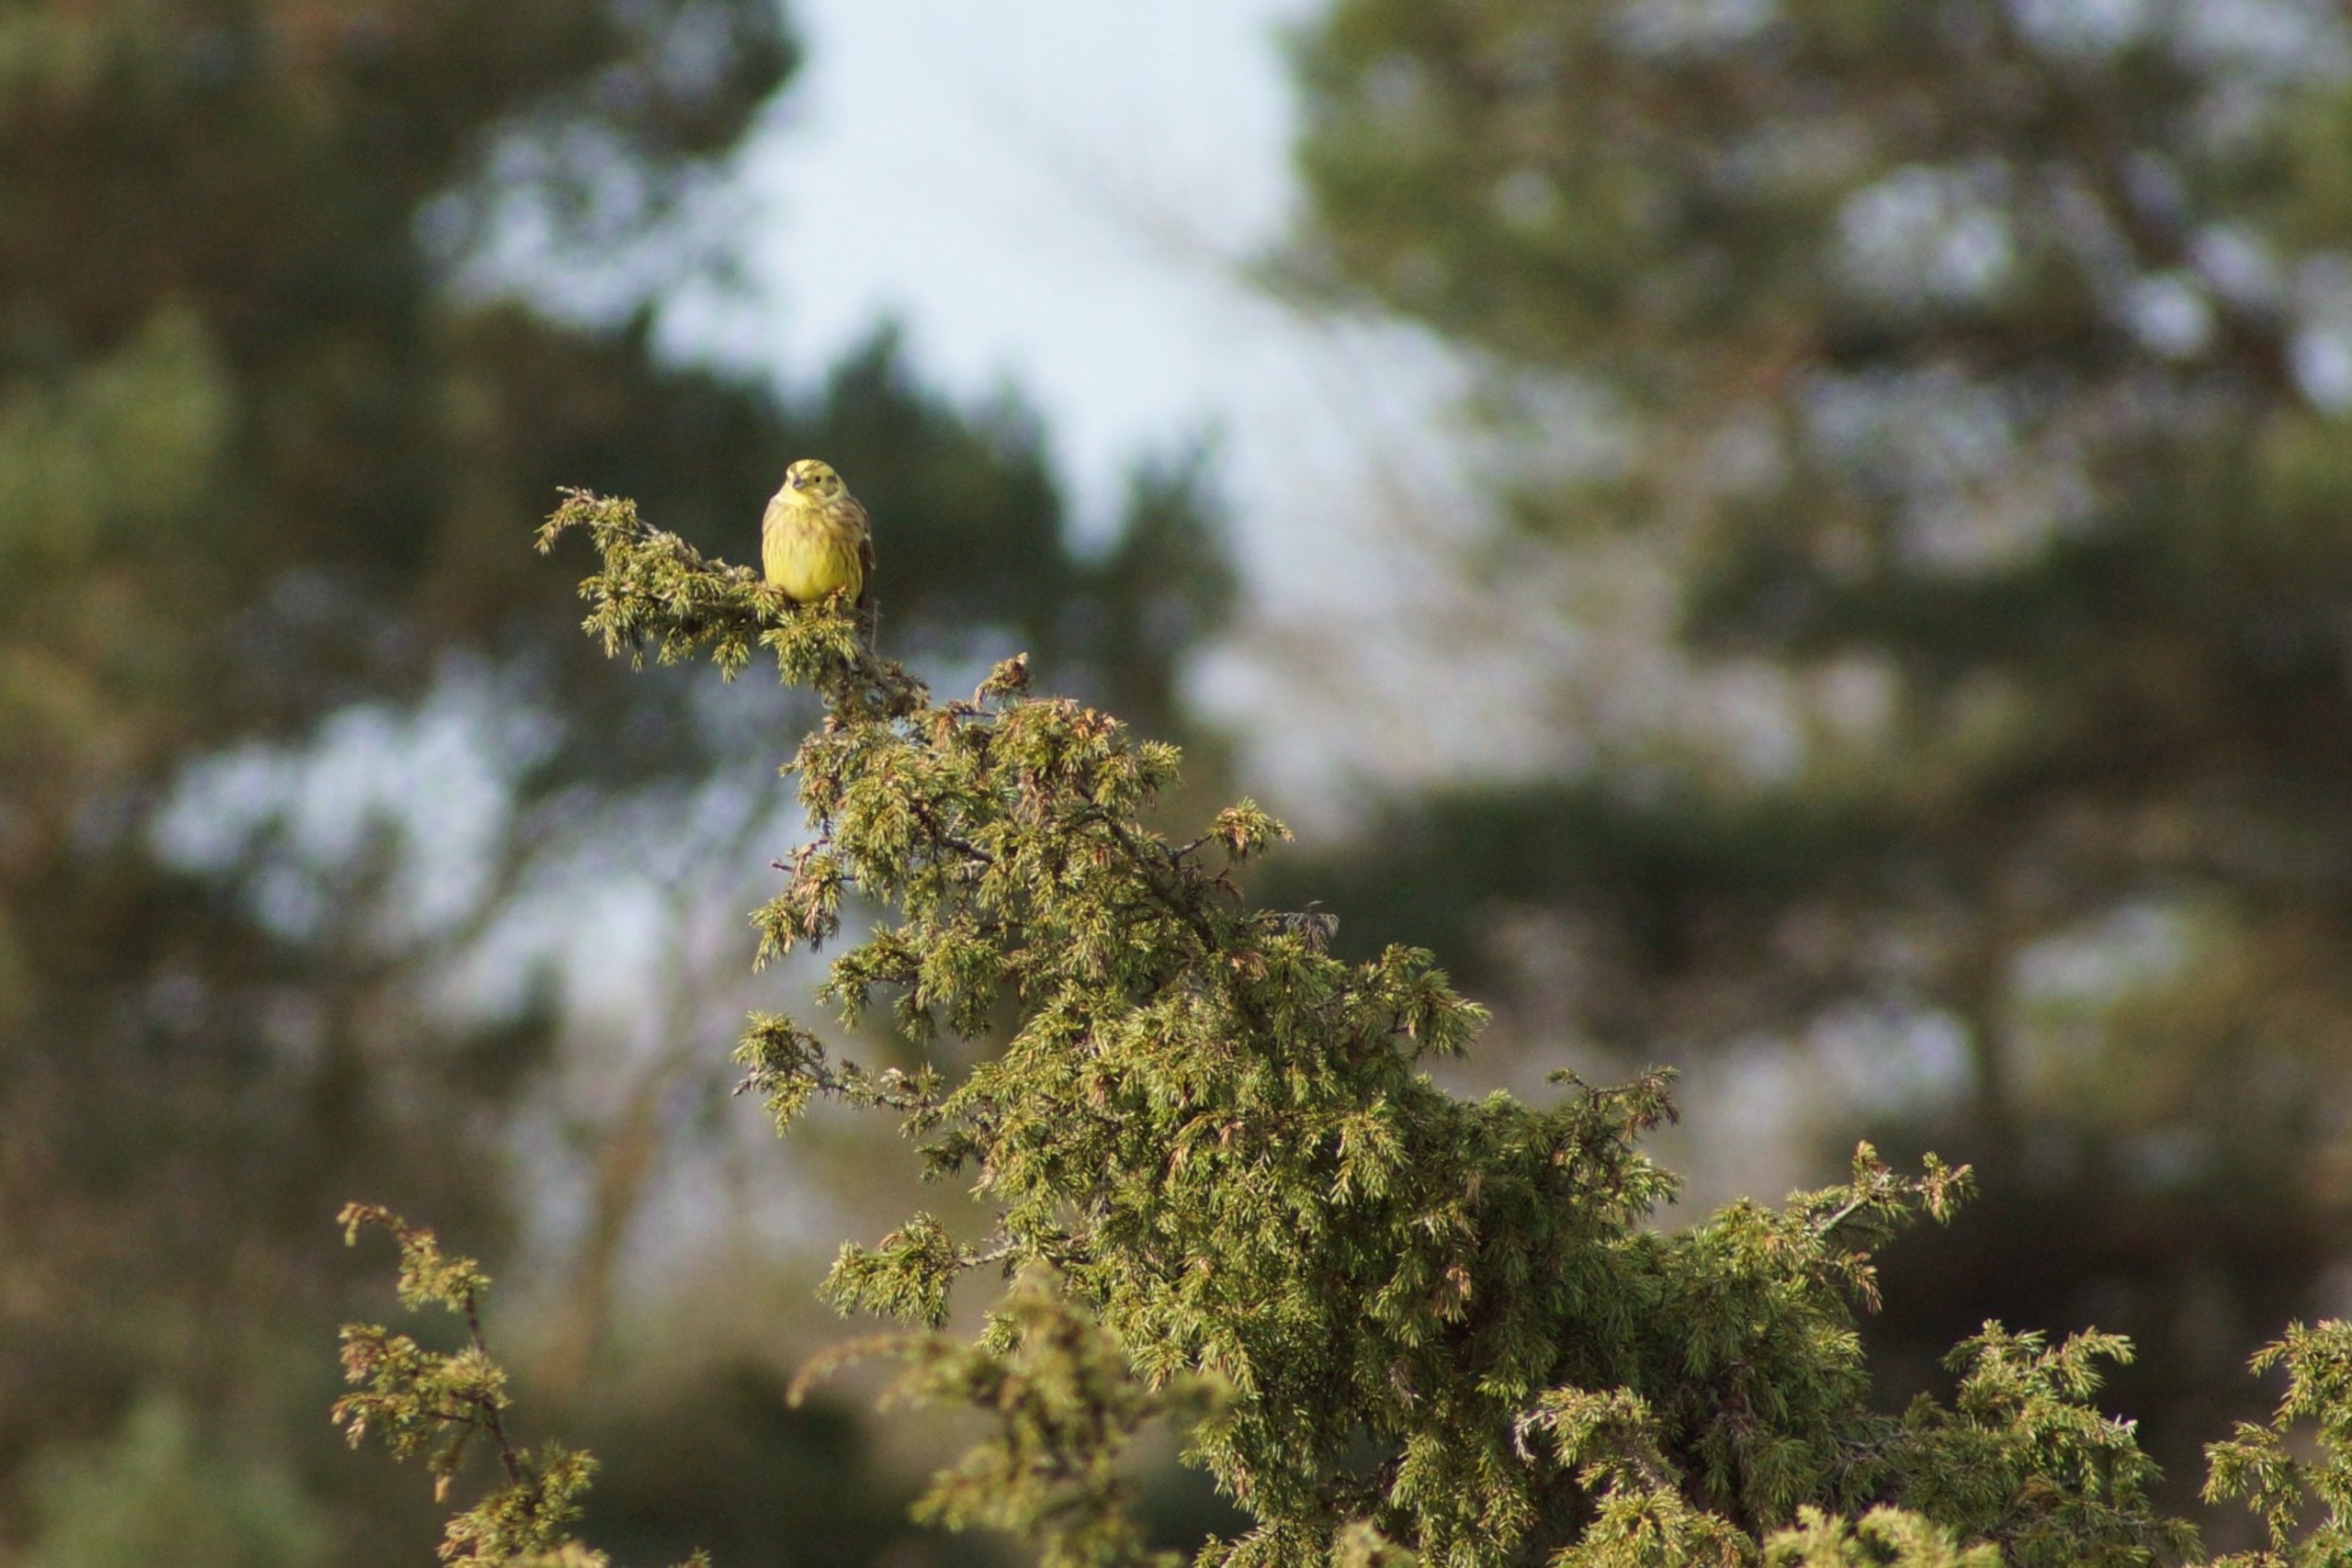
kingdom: Animalia
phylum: Chordata
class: Aves
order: Passeriformes
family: Emberizidae
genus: Emberiza
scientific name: Emberiza citrinella
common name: Gulspurv
